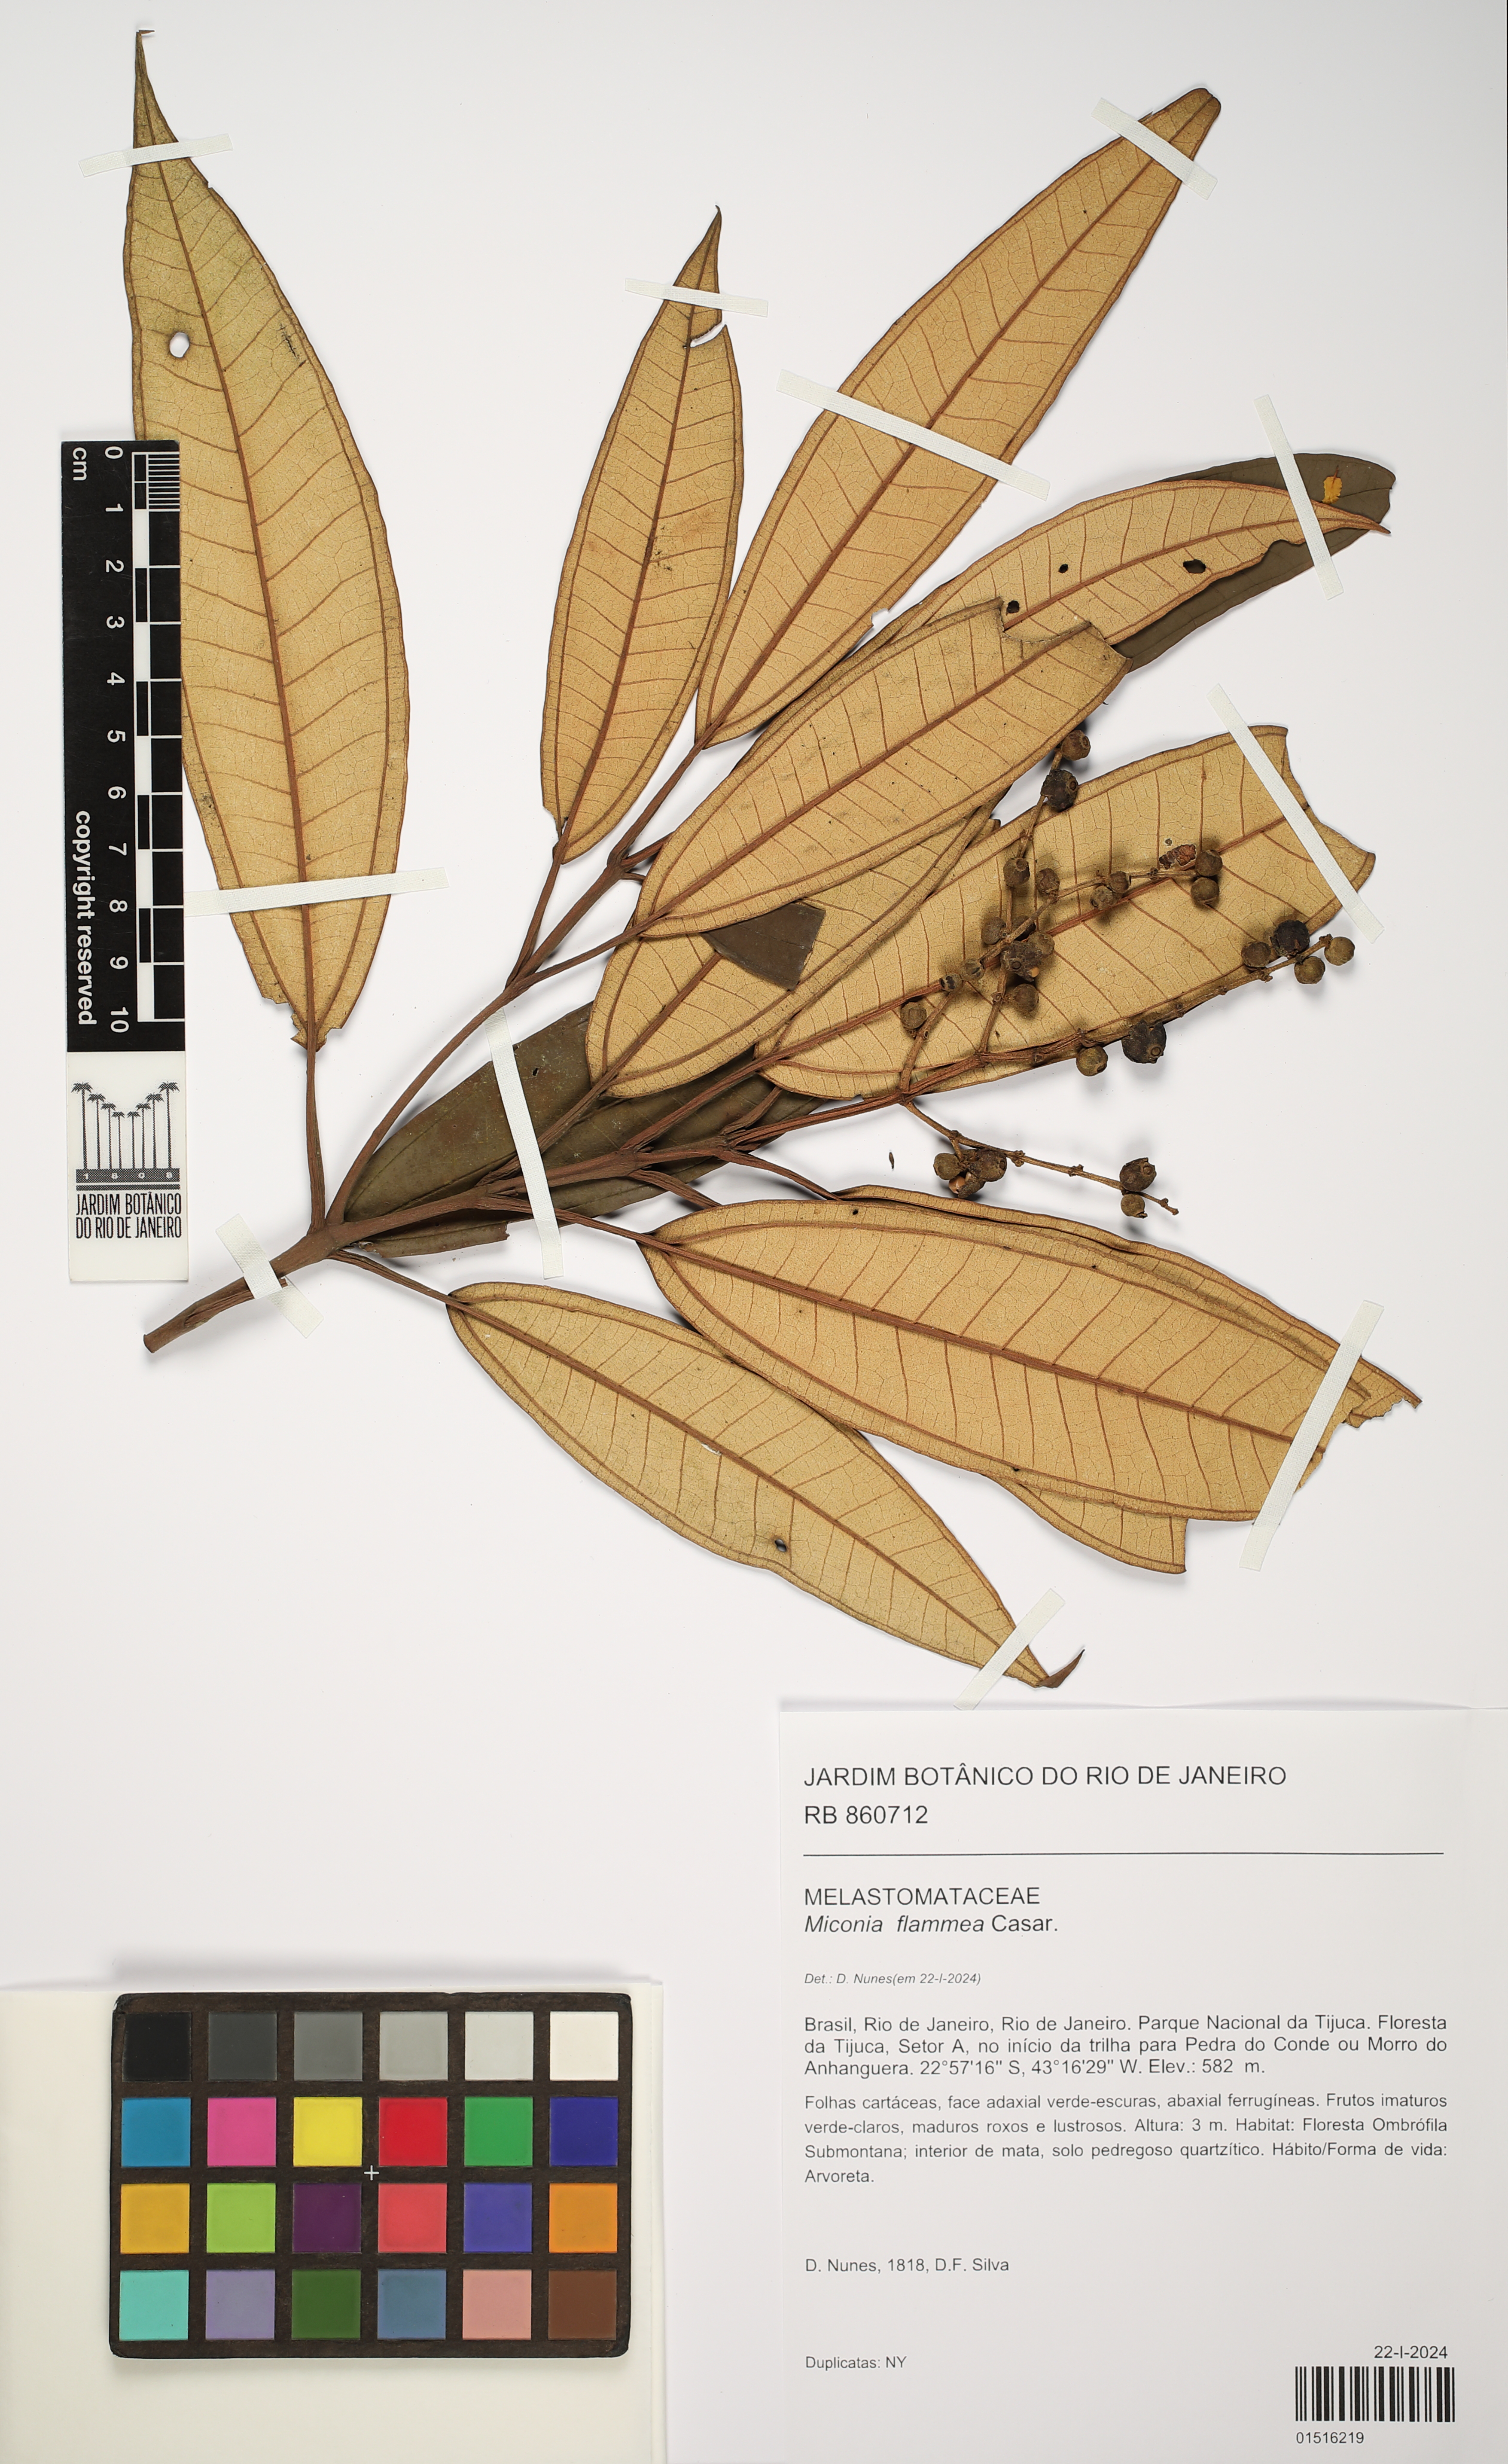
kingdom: Plantae
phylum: Tracheophyta
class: Magnoliopsida
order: Myrtales
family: Melastomataceae
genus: Miconia
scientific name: Miconia flammea
